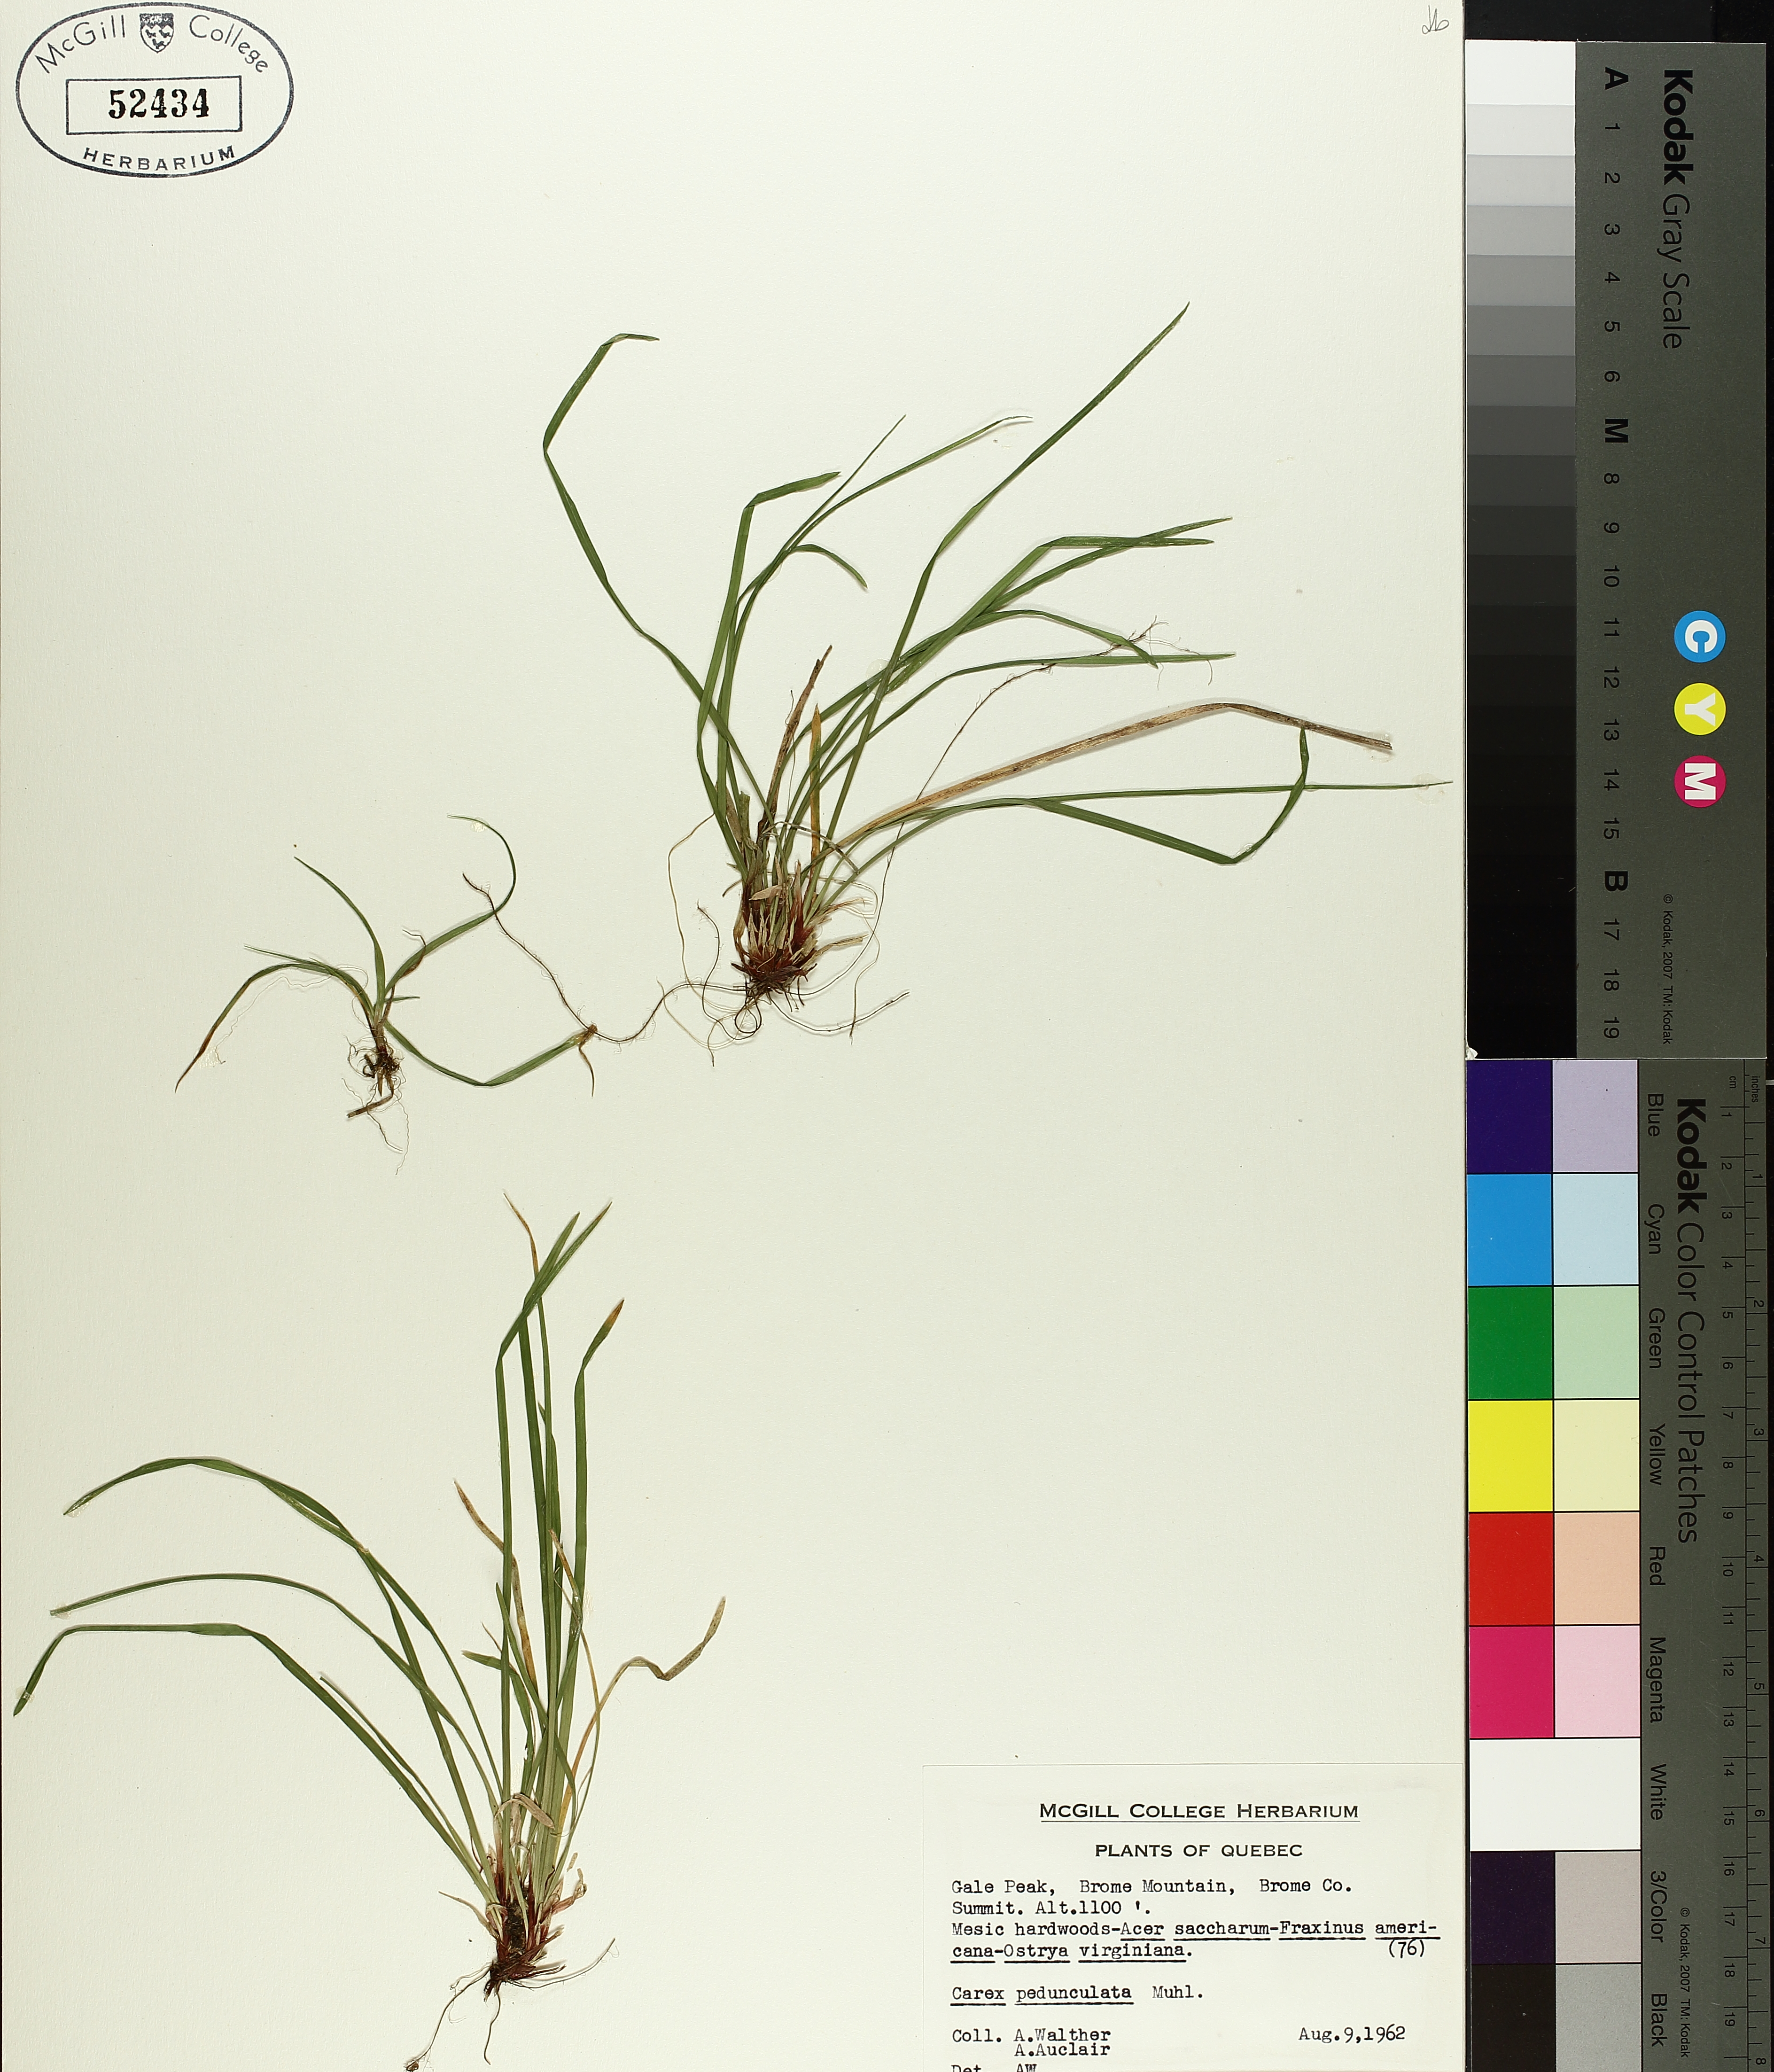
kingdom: Plantae
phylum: Tracheophyta
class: Liliopsida
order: Poales
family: Cyperaceae
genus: Carex
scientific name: Carex pedunculata
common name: Pedunculate sedge
